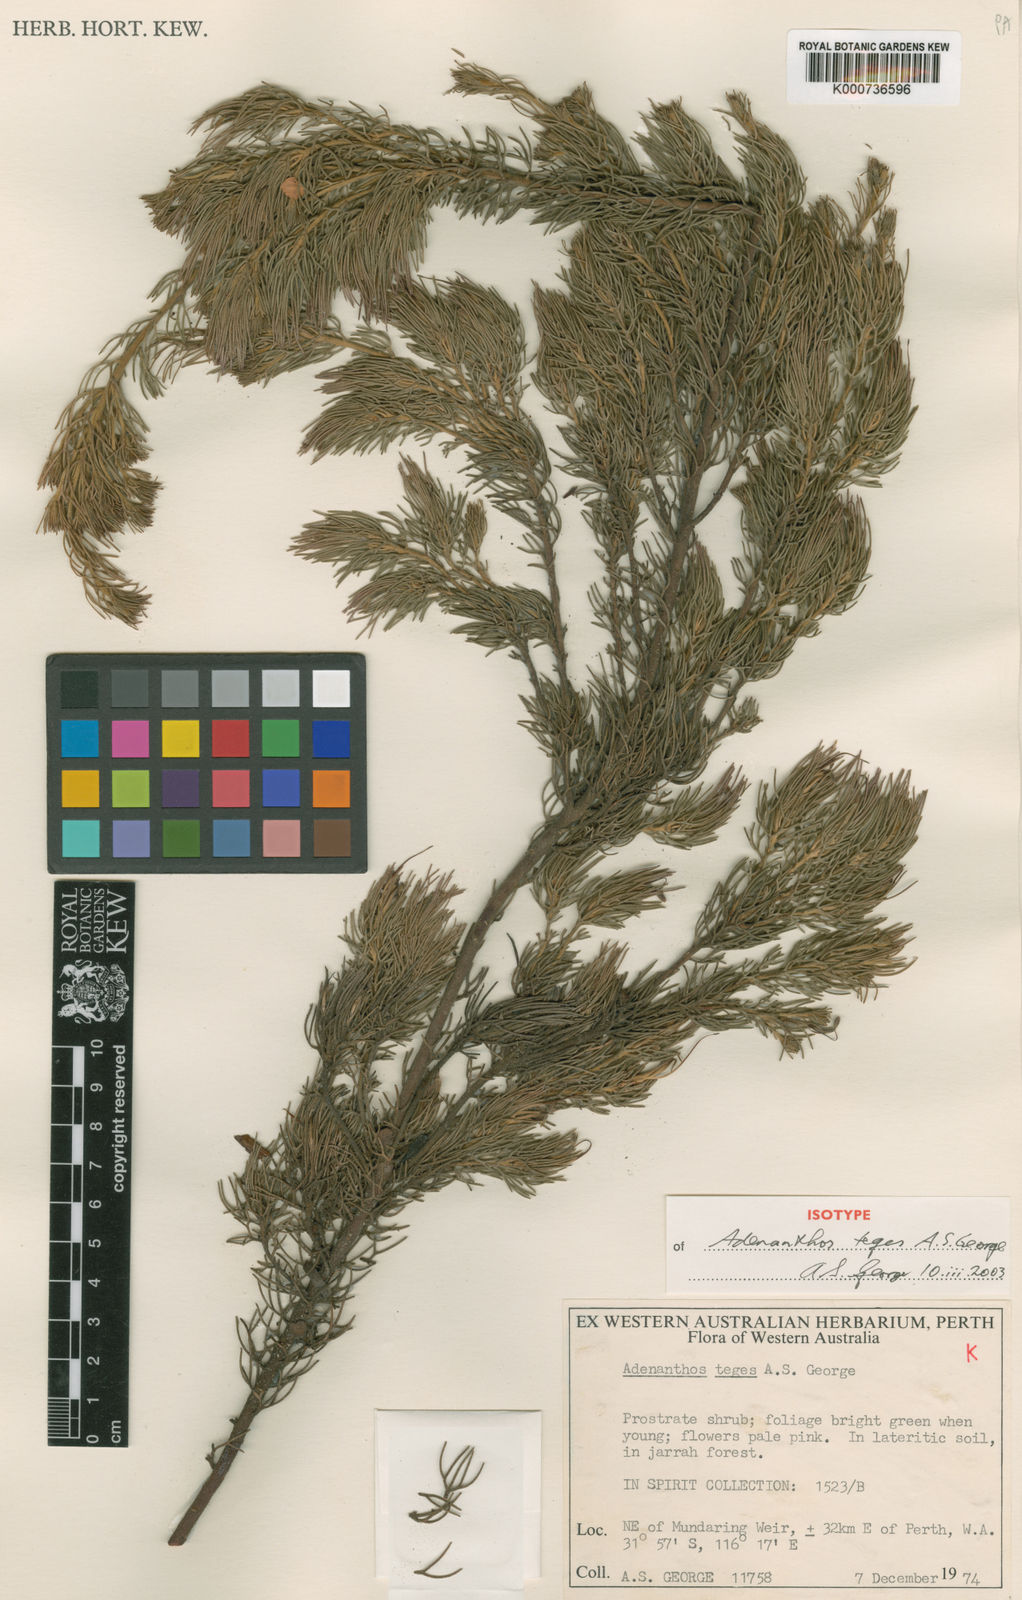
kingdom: Plantae
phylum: Tracheophyta
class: Magnoliopsida
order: Proteales
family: Proteaceae
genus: Adenanthos
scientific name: Adenanthos cygnorum
